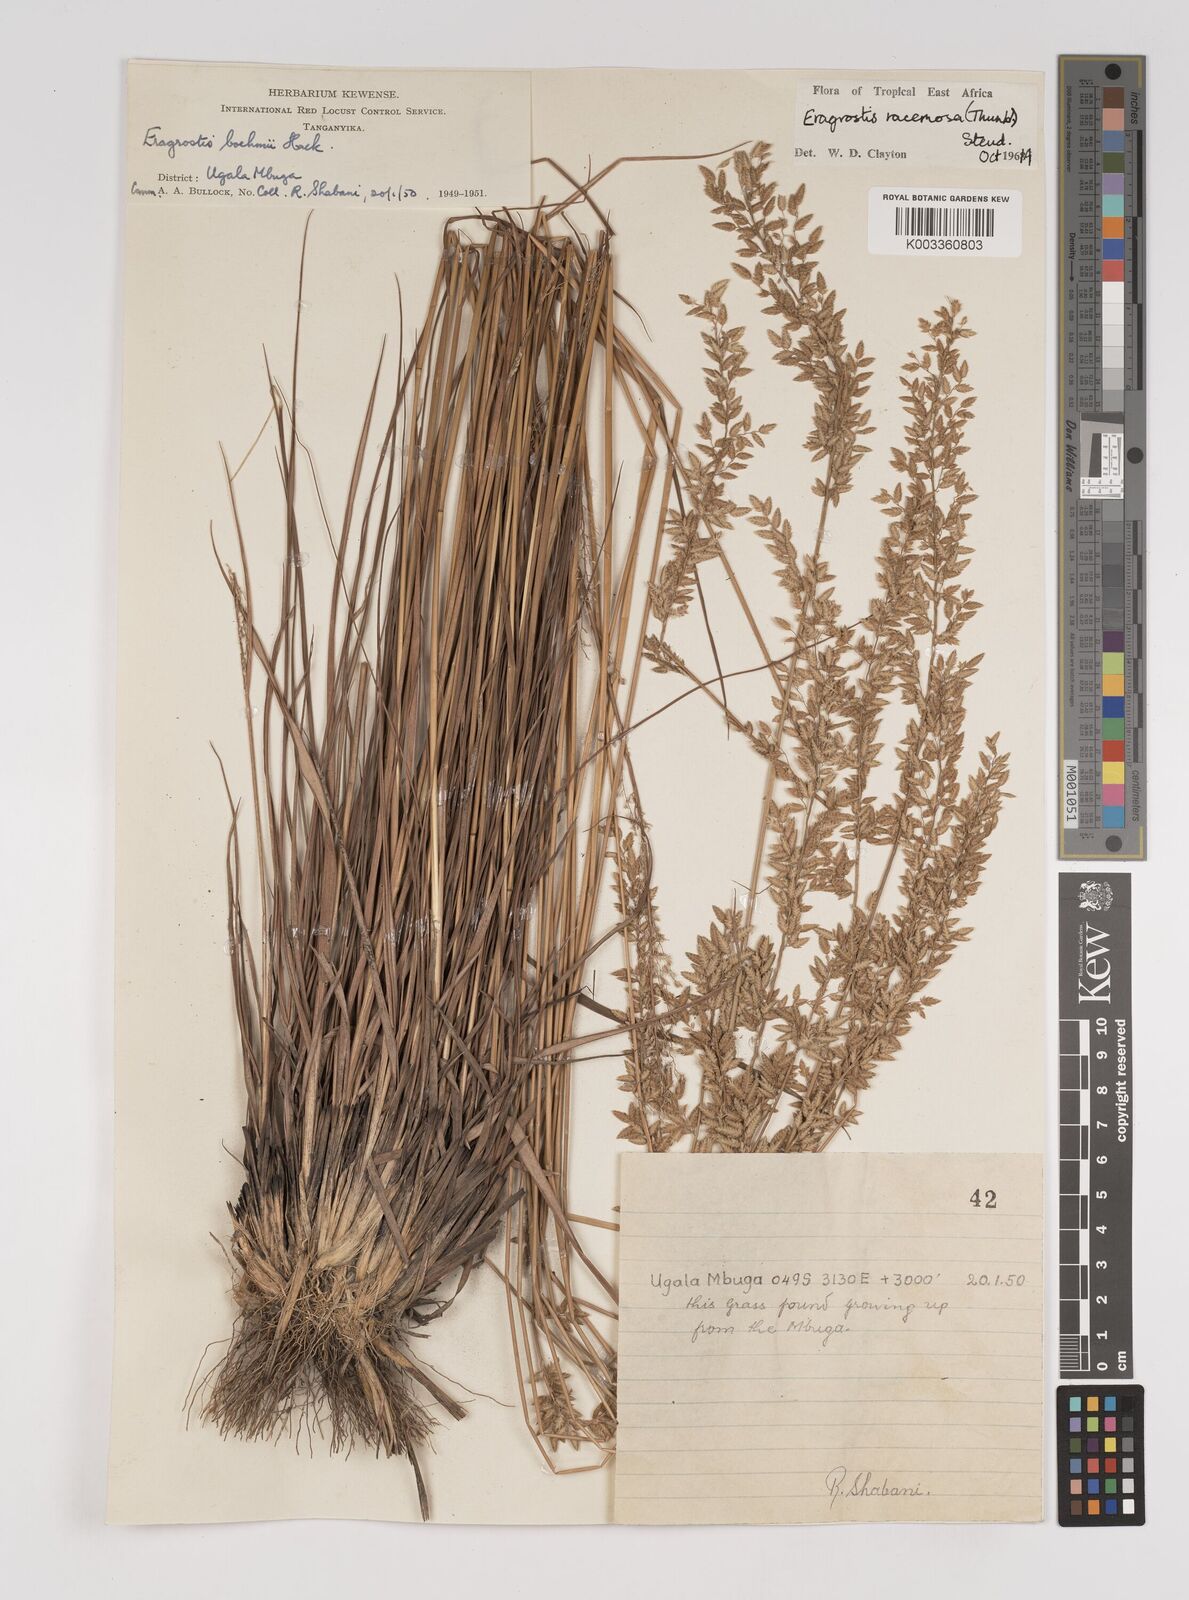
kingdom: Plantae
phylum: Tracheophyta
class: Liliopsida
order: Poales
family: Poaceae
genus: Eragrostis
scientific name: Eragrostis racemosa
